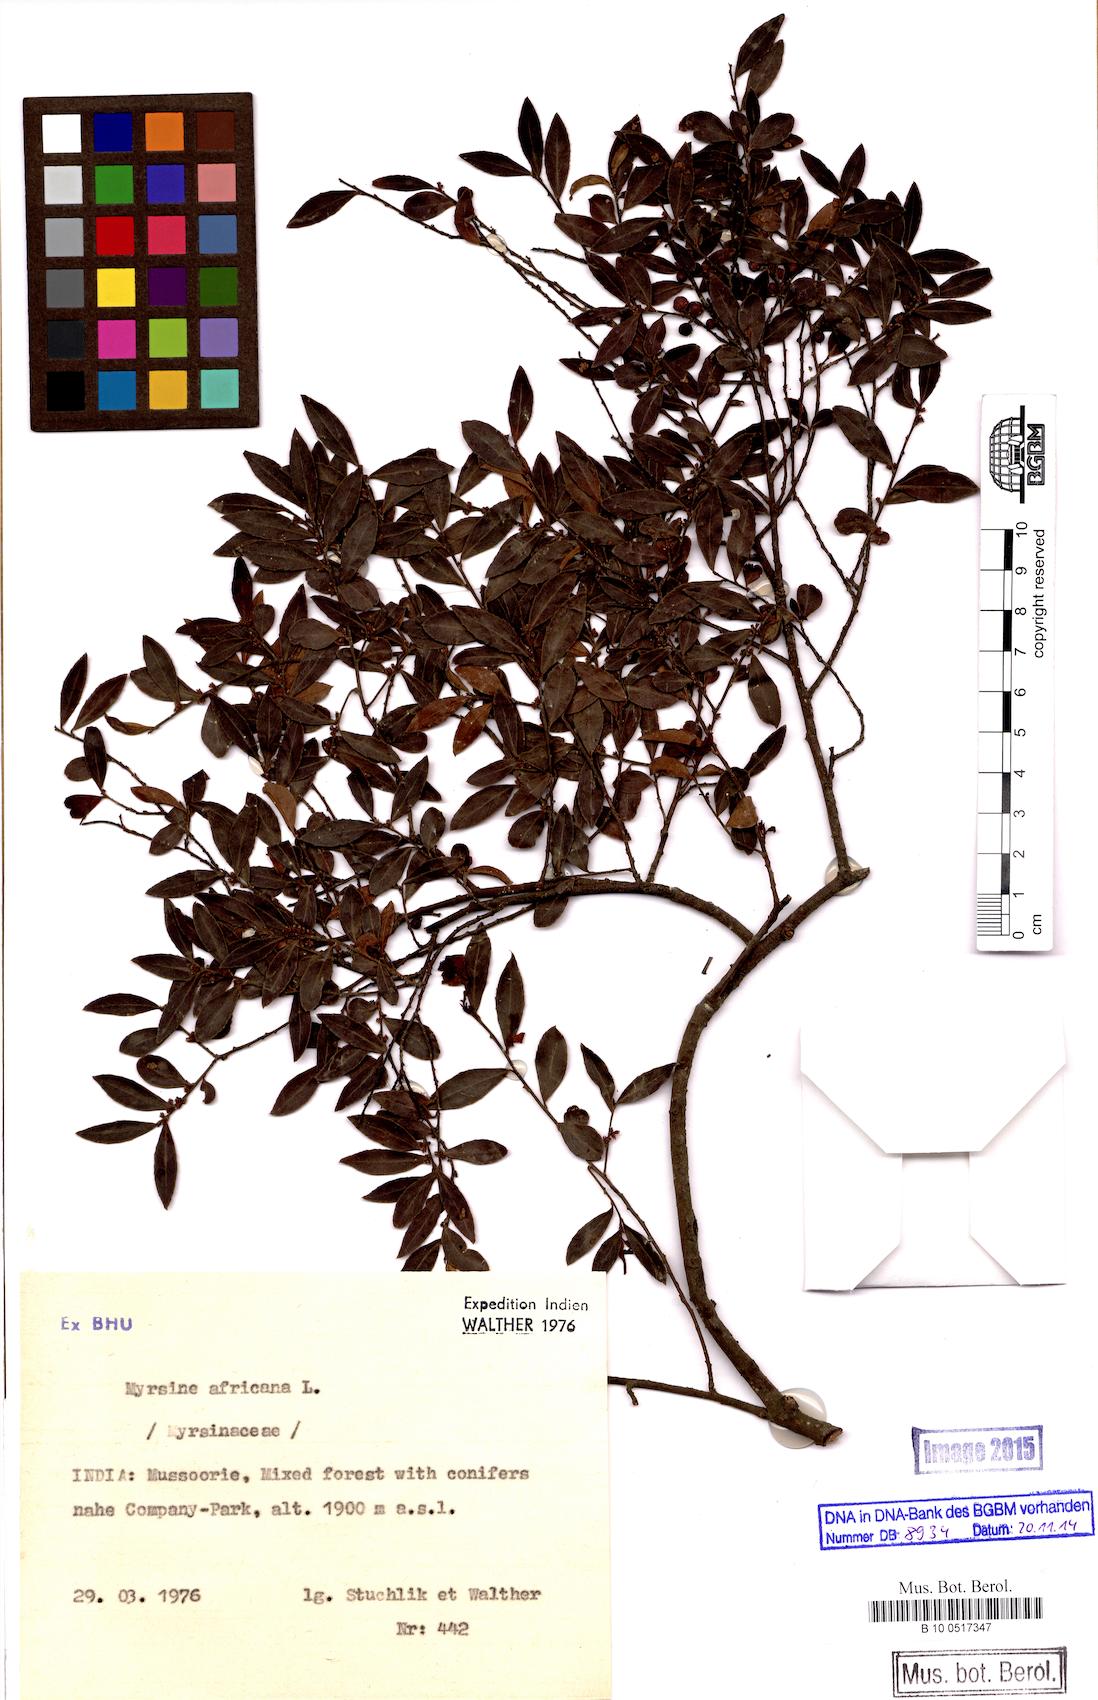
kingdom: Plantae
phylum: Tracheophyta
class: Magnoliopsida
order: Ericales
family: Primulaceae
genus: Myrsine
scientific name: Myrsine africana
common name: African-boxwood
